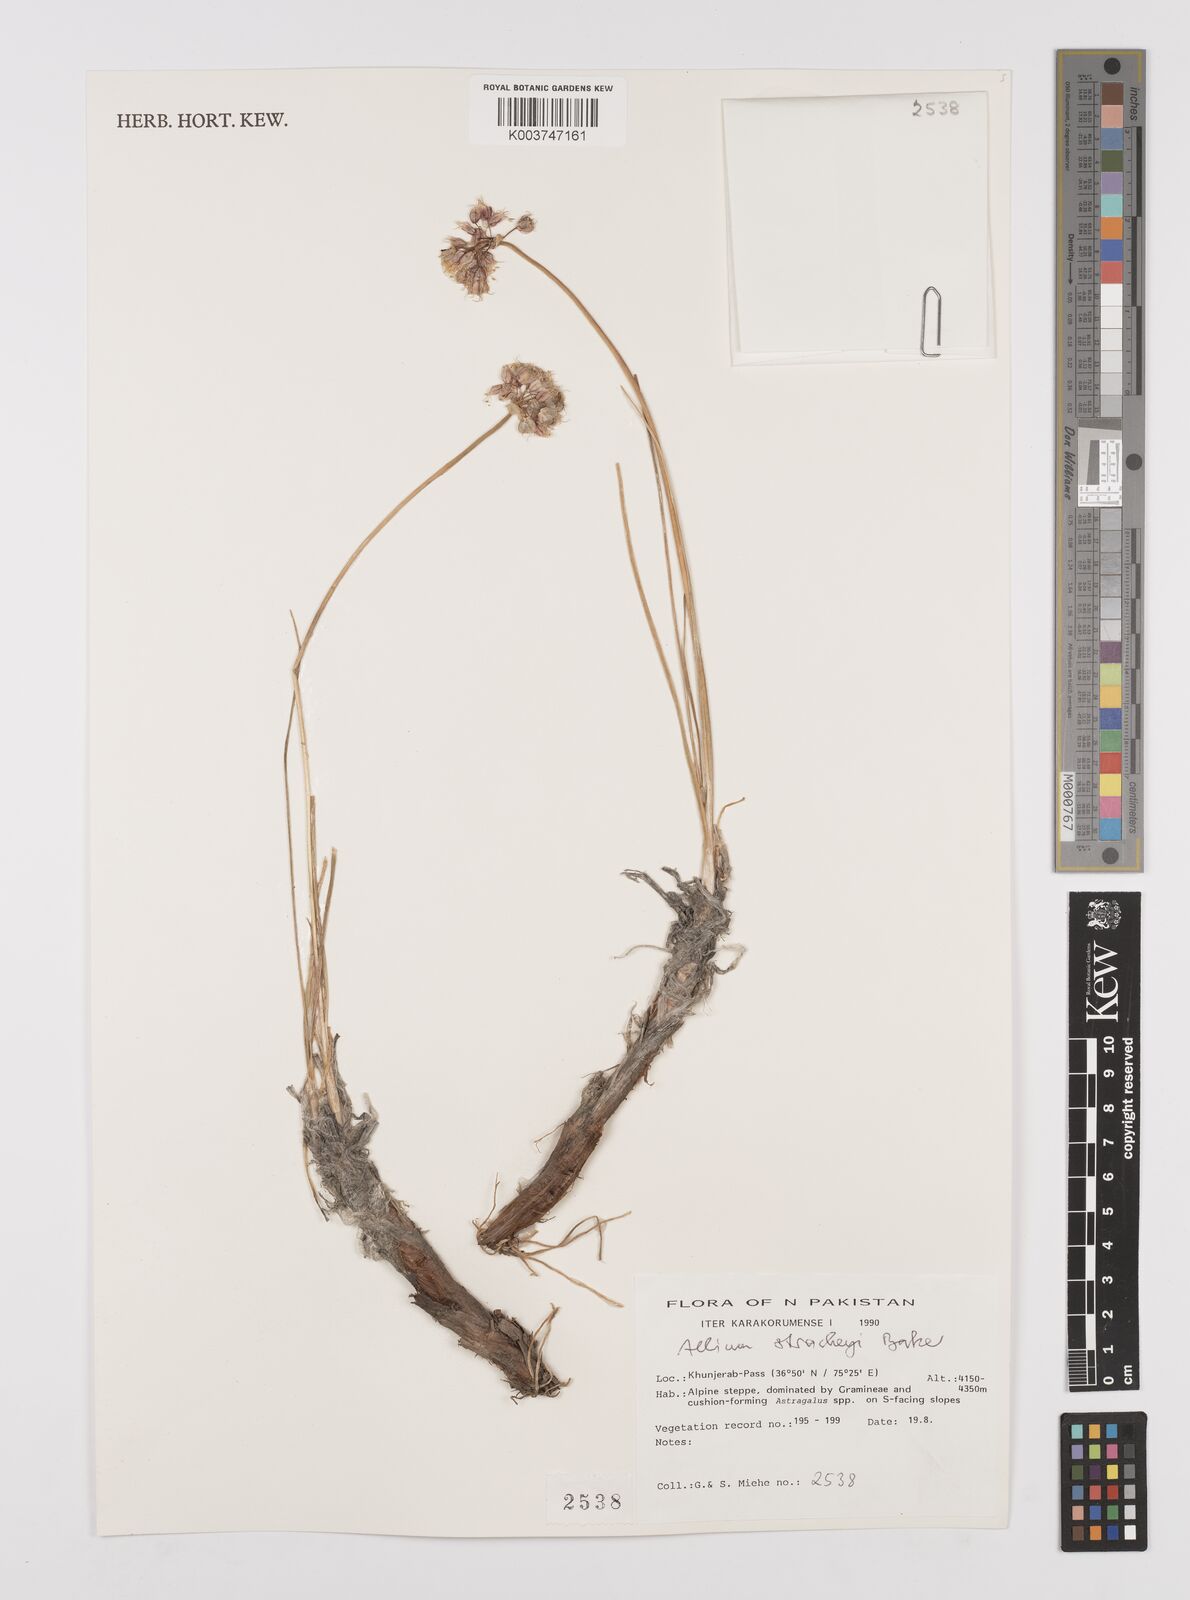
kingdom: Plantae
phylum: Tracheophyta
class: Liliopsida
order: Asparagales
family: Amaryllidaceae
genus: Allium
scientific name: Allium stracheyi
